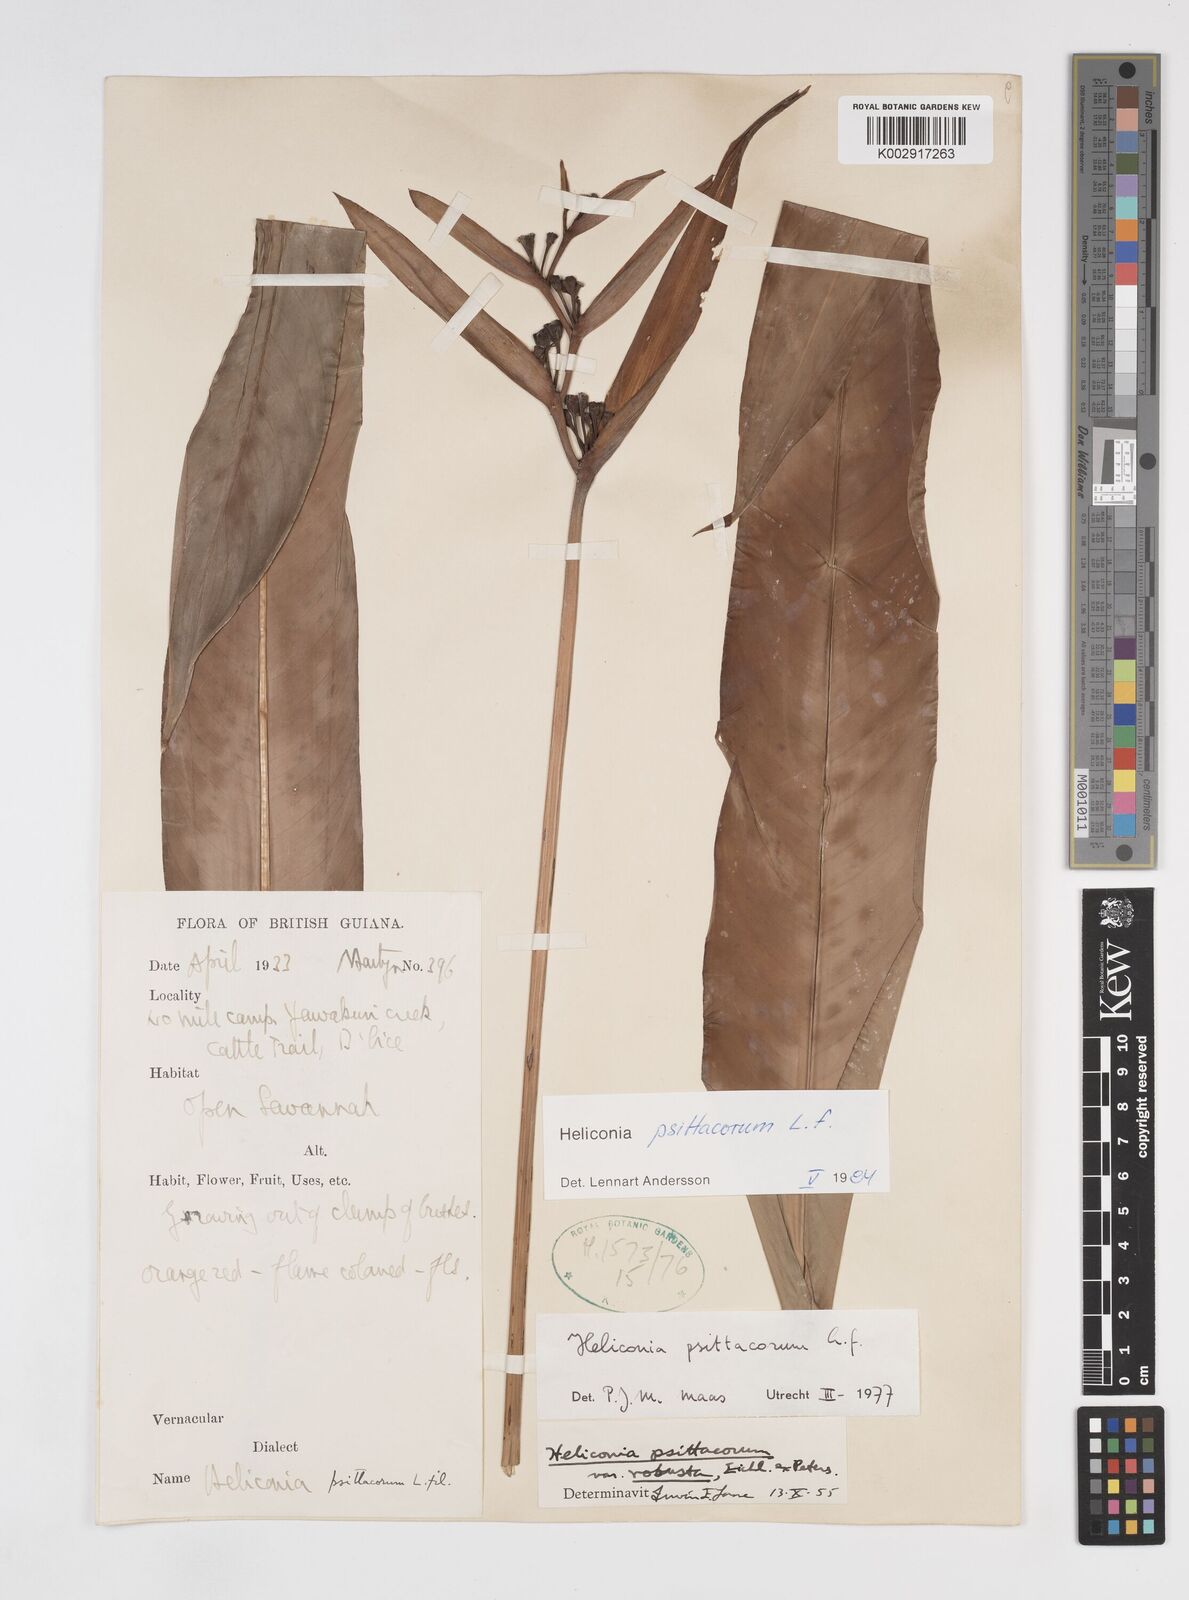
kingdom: Plantae
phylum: Tracheophyta
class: Liliopsida
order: Zingiberales
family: Heliconiaceae
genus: Heliconia
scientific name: Heliconia psittacorum
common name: Parrot's-flower
